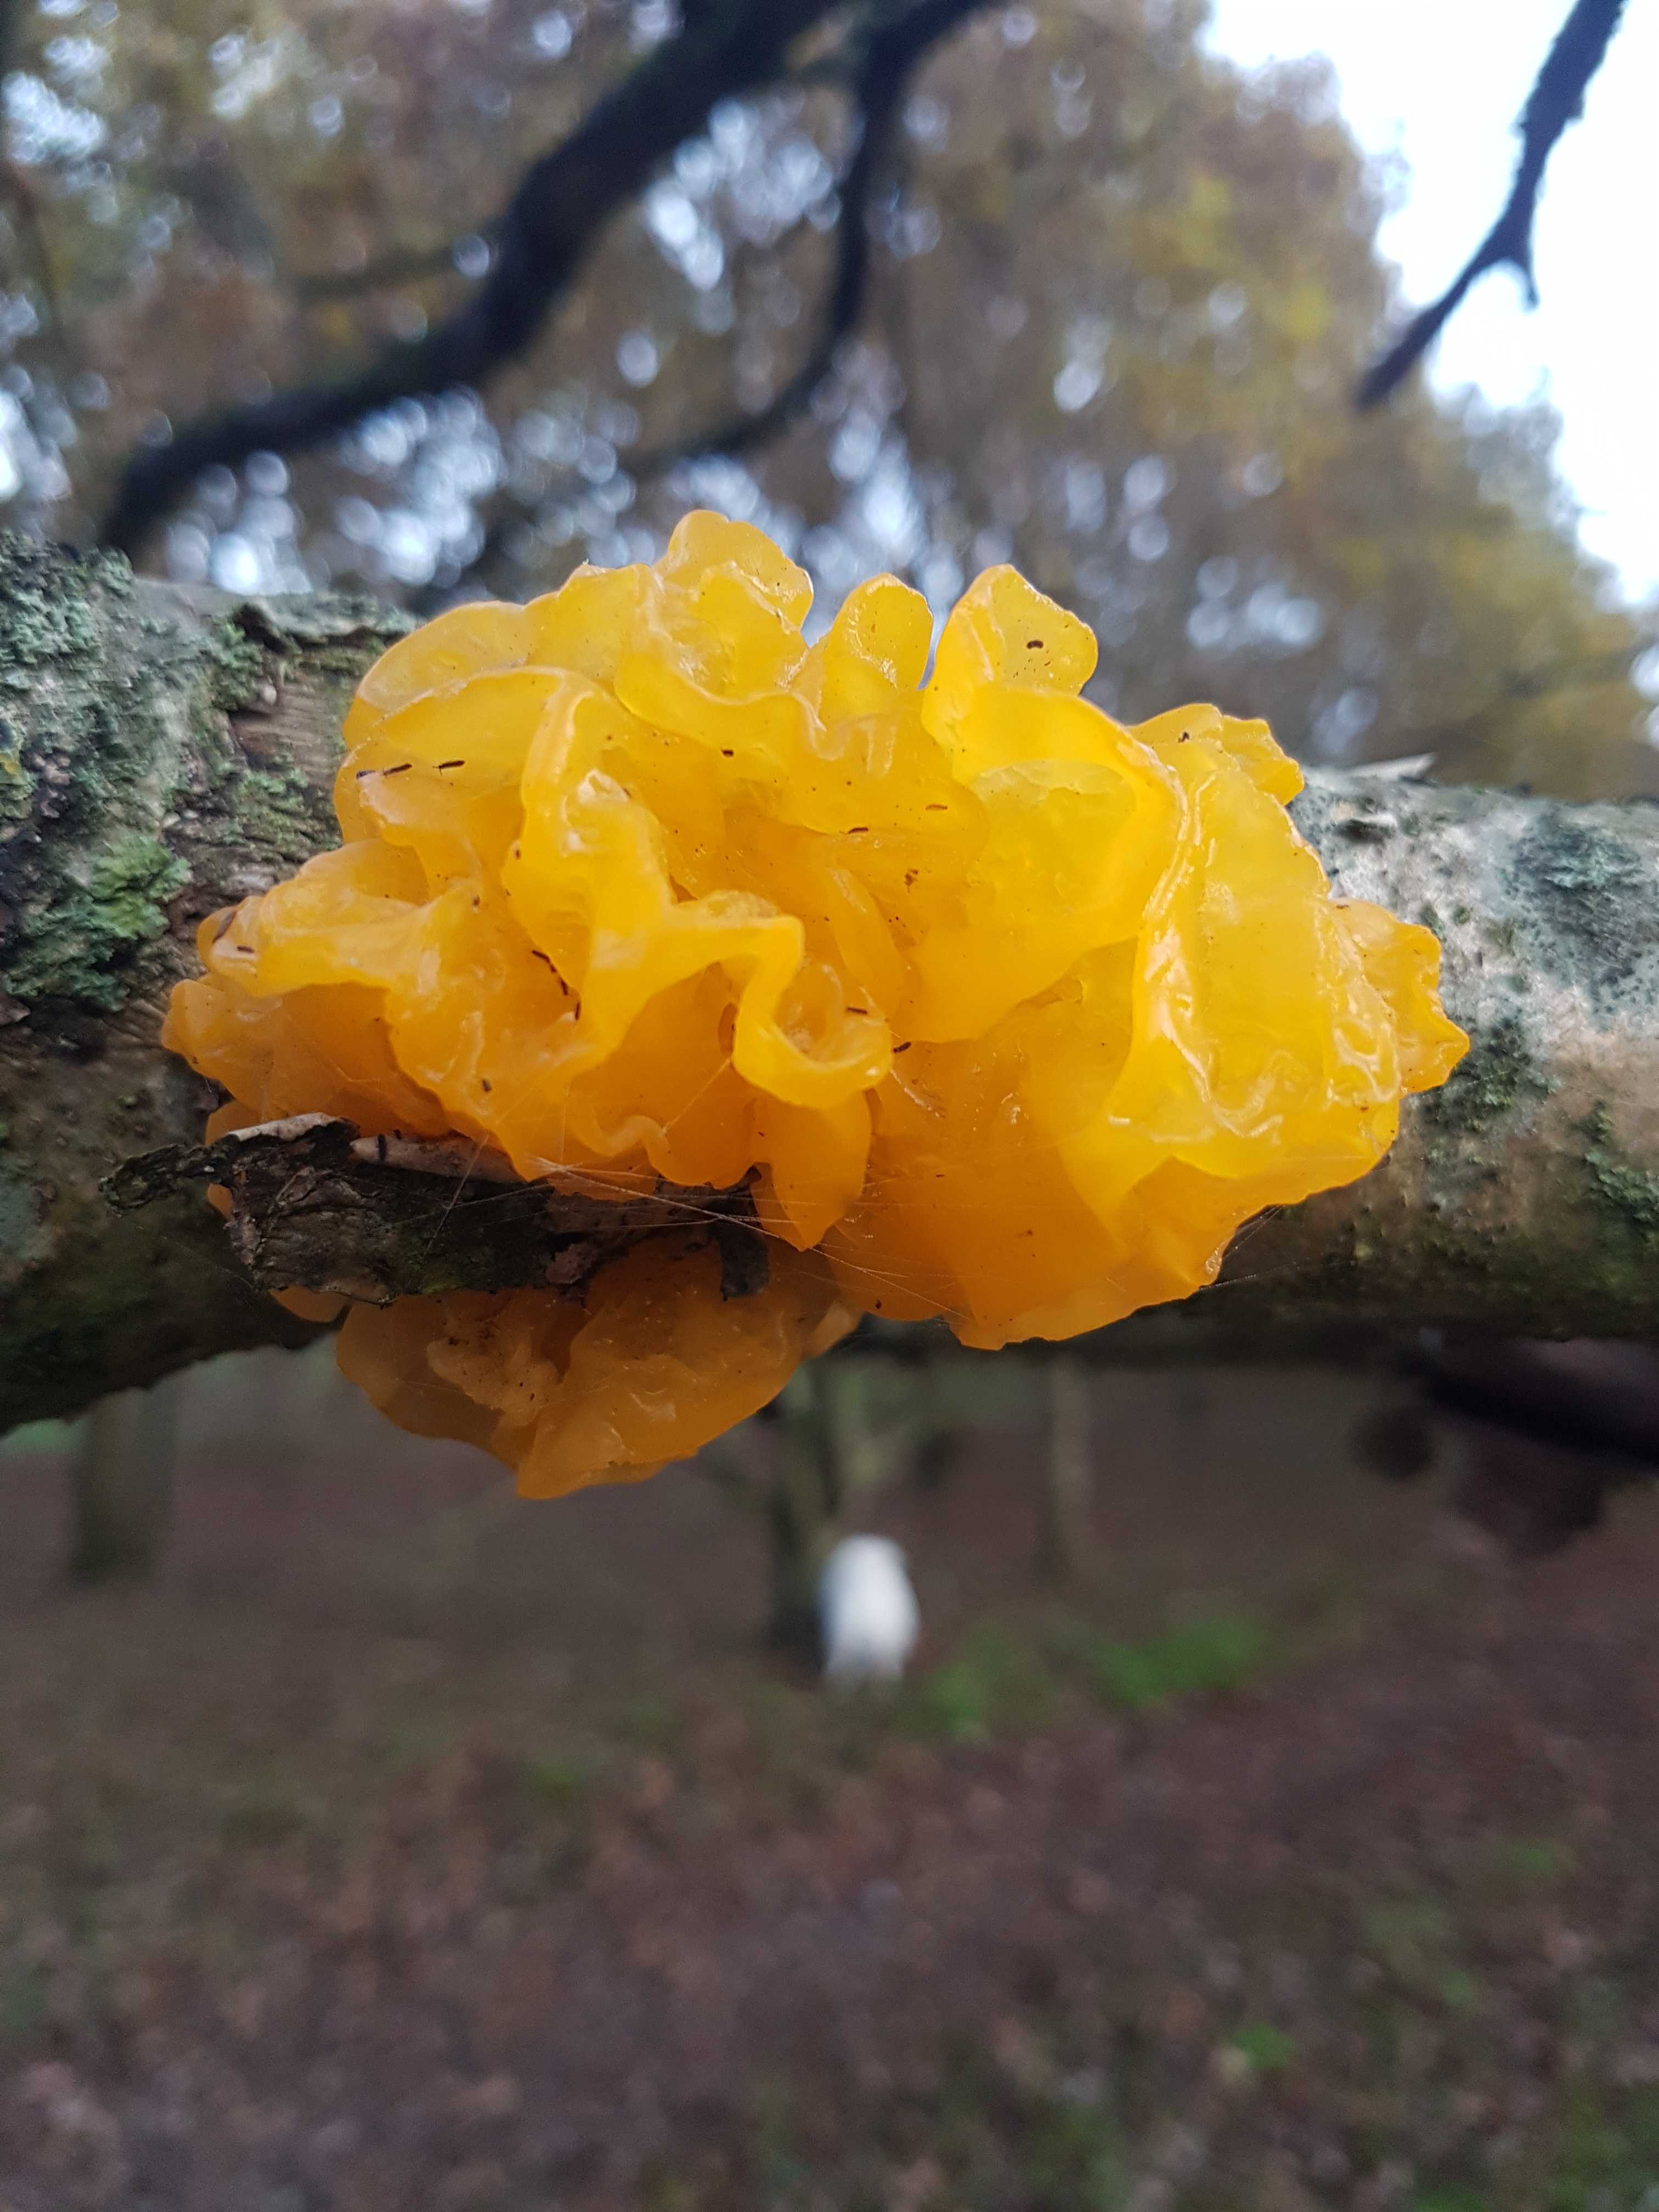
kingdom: Fungi
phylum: Basidiomycota
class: Tremellomycetes
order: Tremellales
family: Tremellaceae
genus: Tremella
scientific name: Tremella mesenterica
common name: gul bævresvamp
